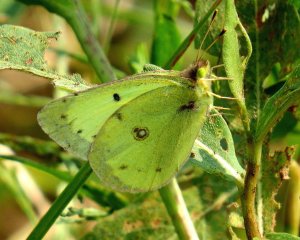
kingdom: Animalia
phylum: Arthropoda
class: Insecta
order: Lepidoptera
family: Pieridae
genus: Colias
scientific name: Colias philodice
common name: Clouded Sulphur
